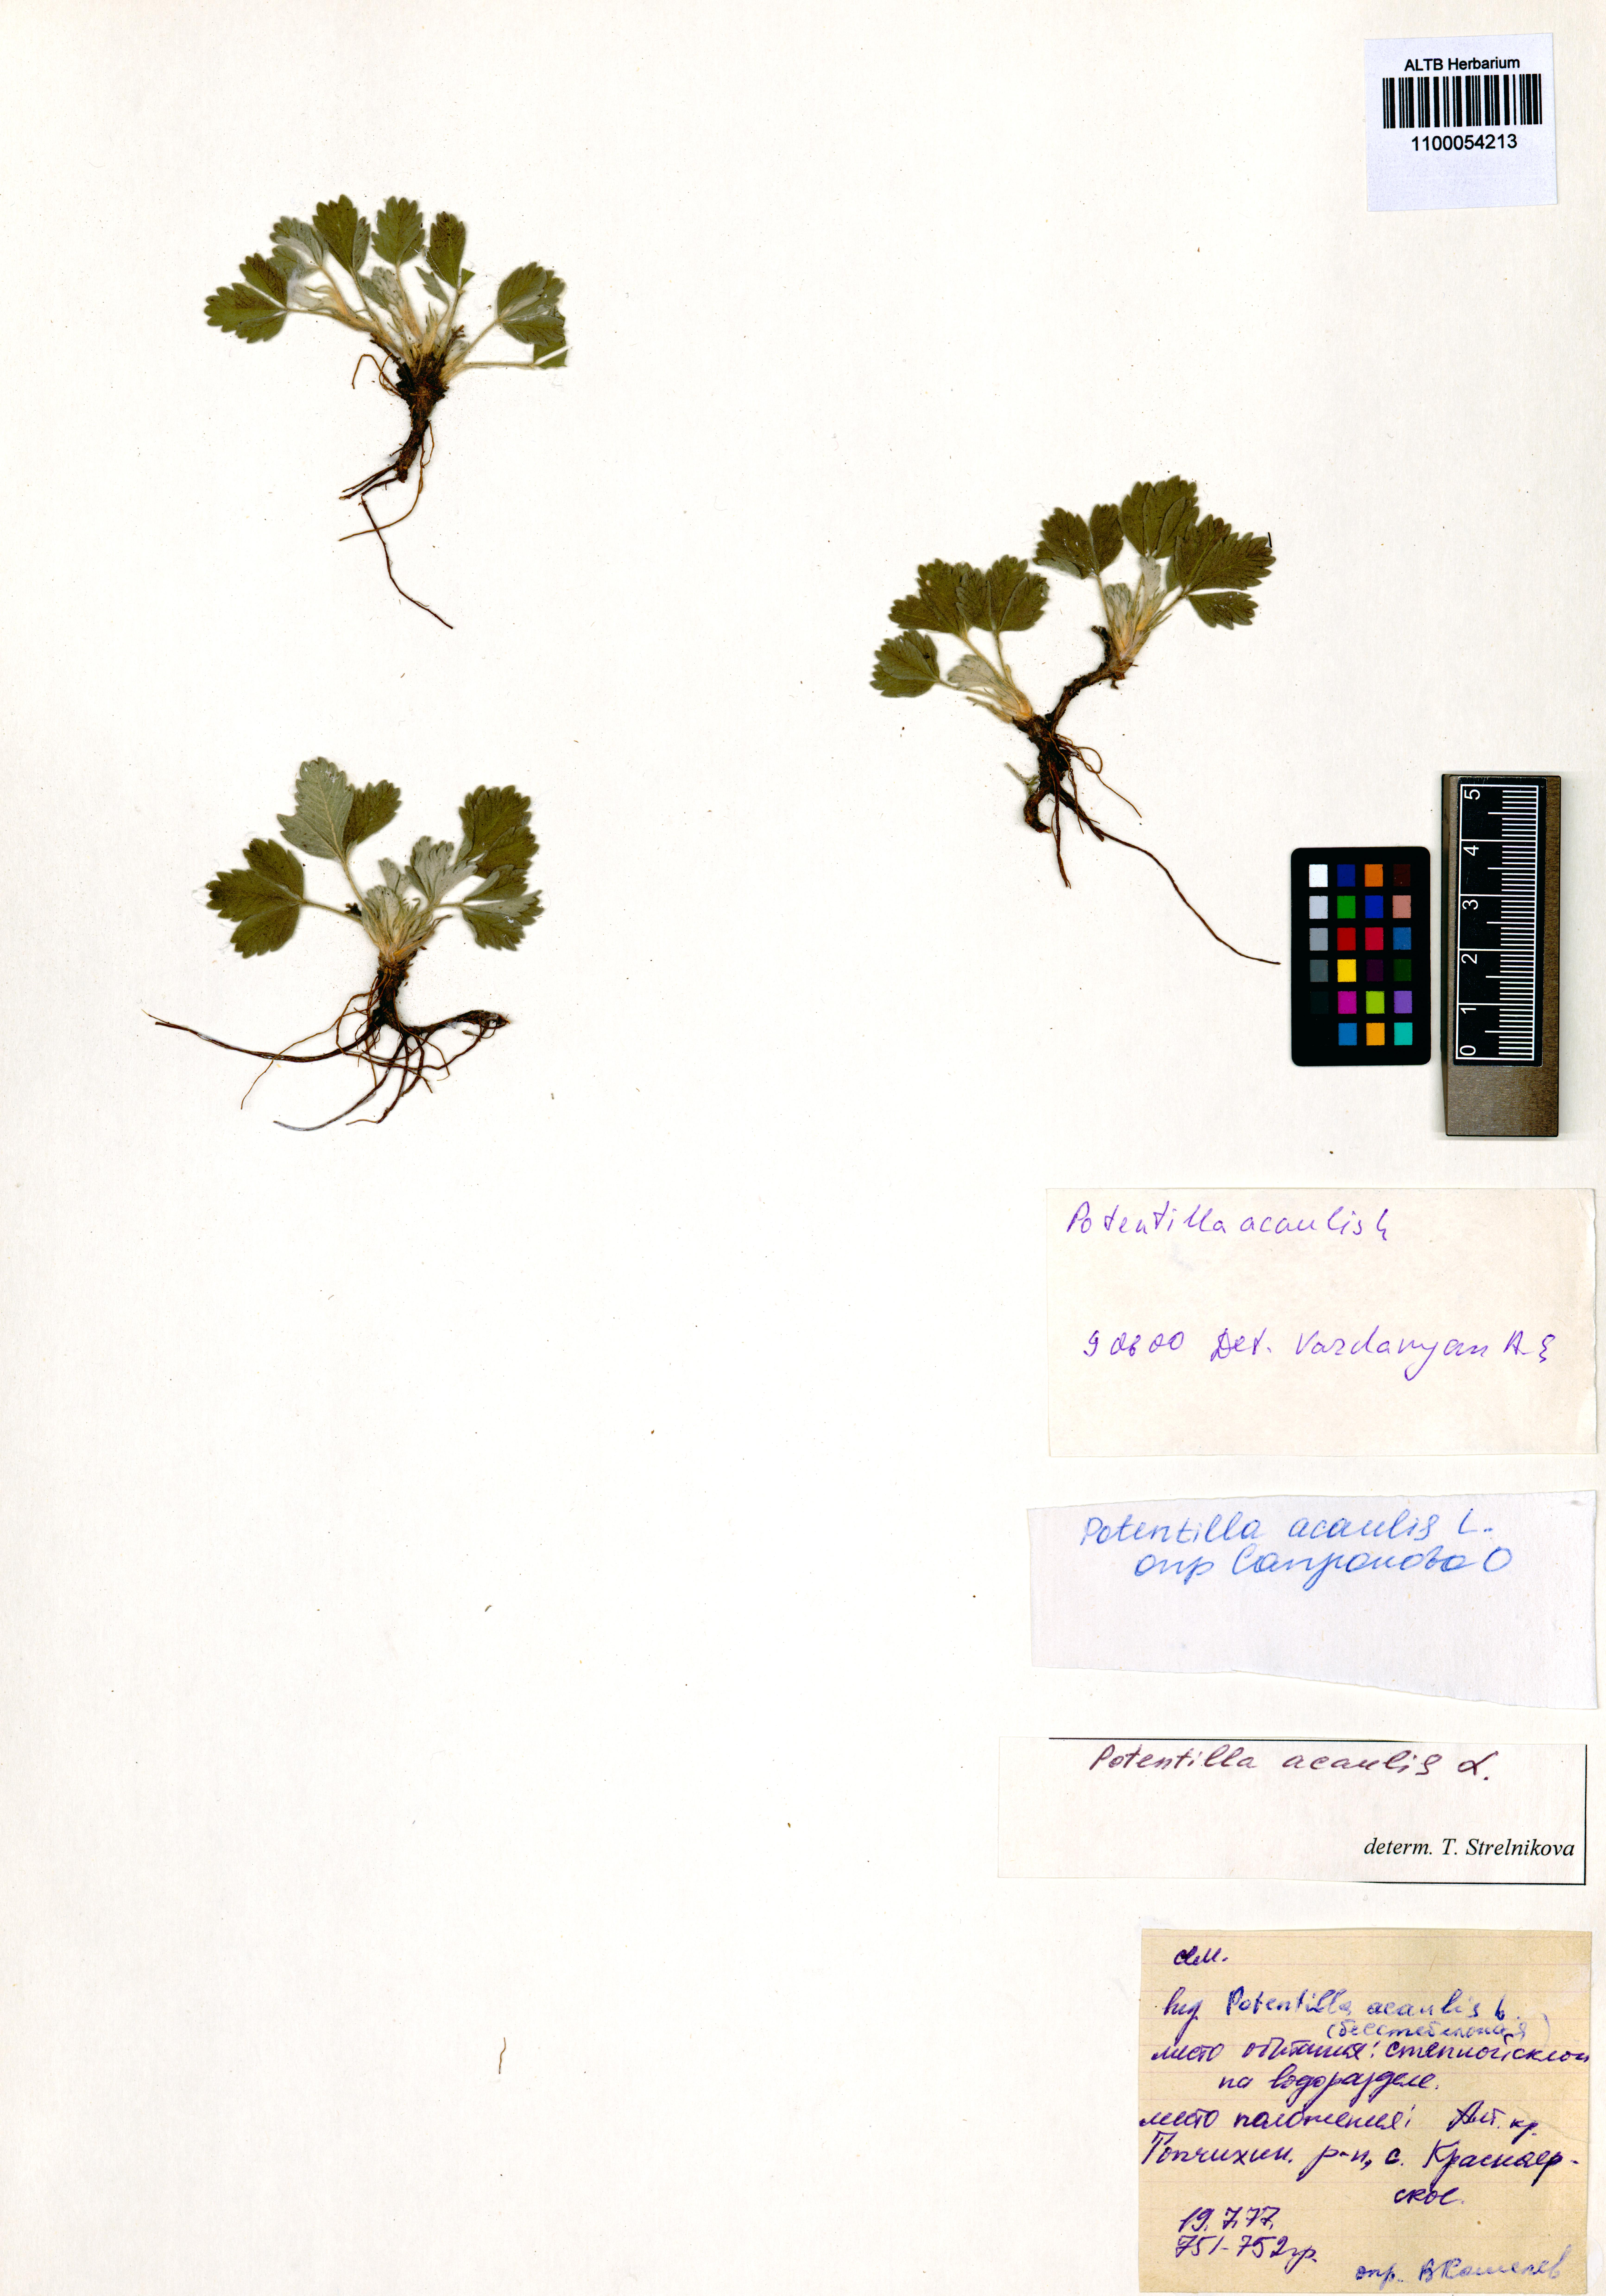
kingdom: Plantae
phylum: Tracheophyta
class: Magnoliopsida
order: Rosales
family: Rosaceae
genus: Potentilla
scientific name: Potentilla acaulis
